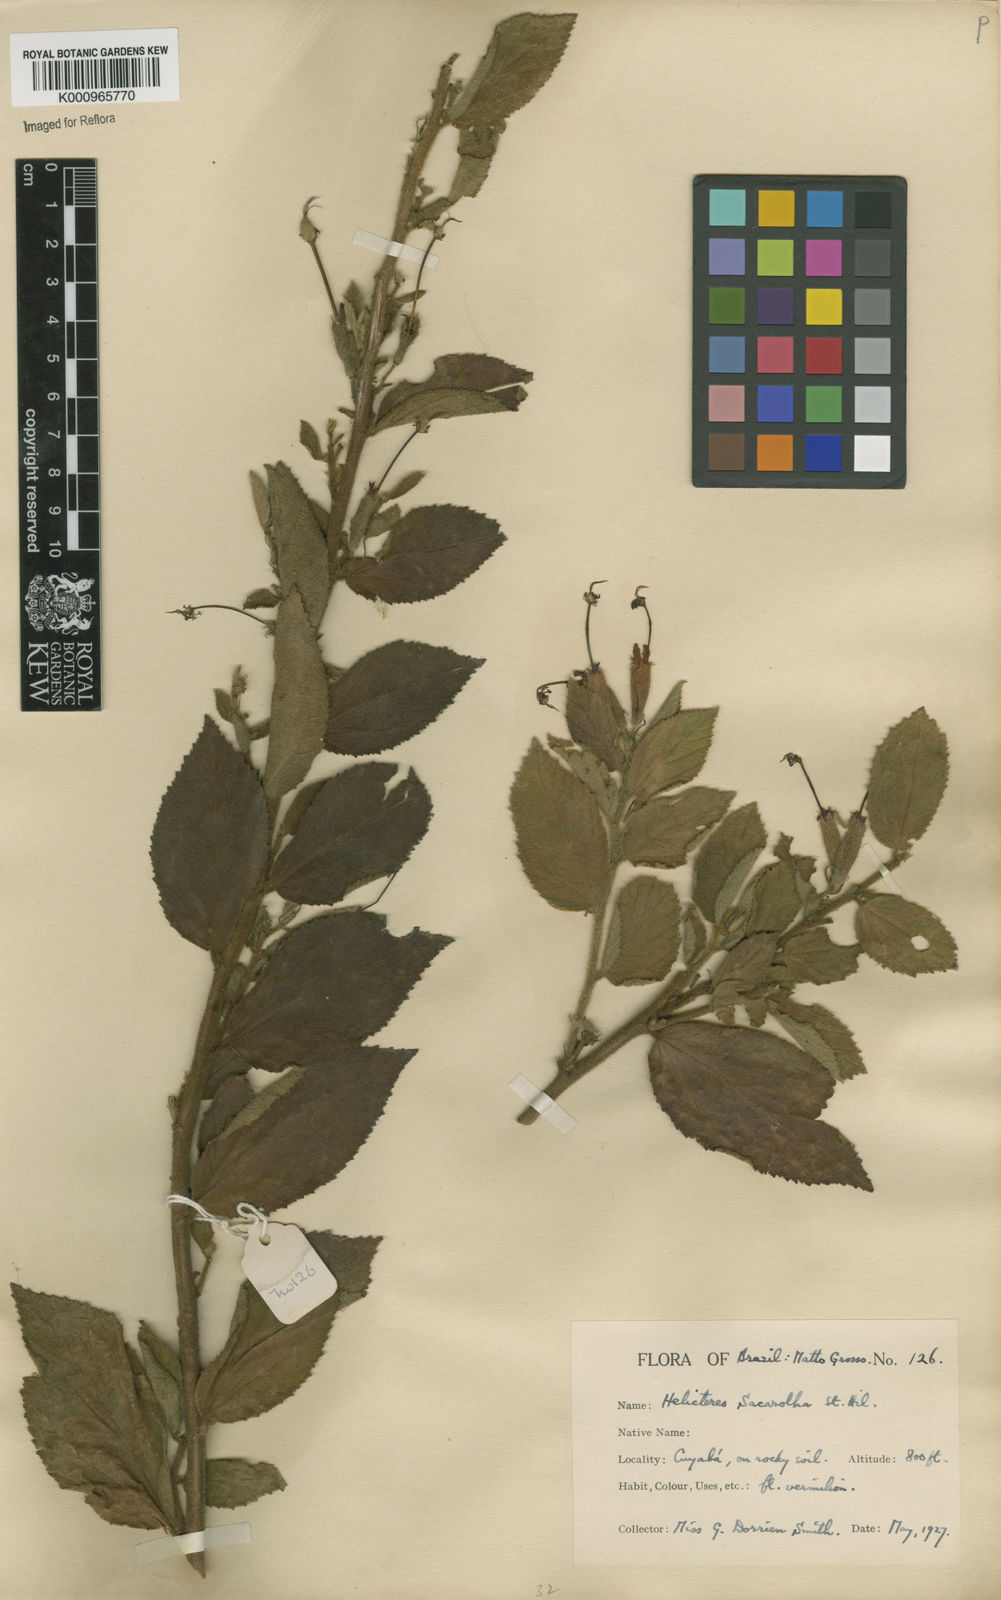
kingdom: Plantae
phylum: Tracheophyta
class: Magnoliopsida
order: Malvales
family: Malvaceae
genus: Helicteres
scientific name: Helicteres
